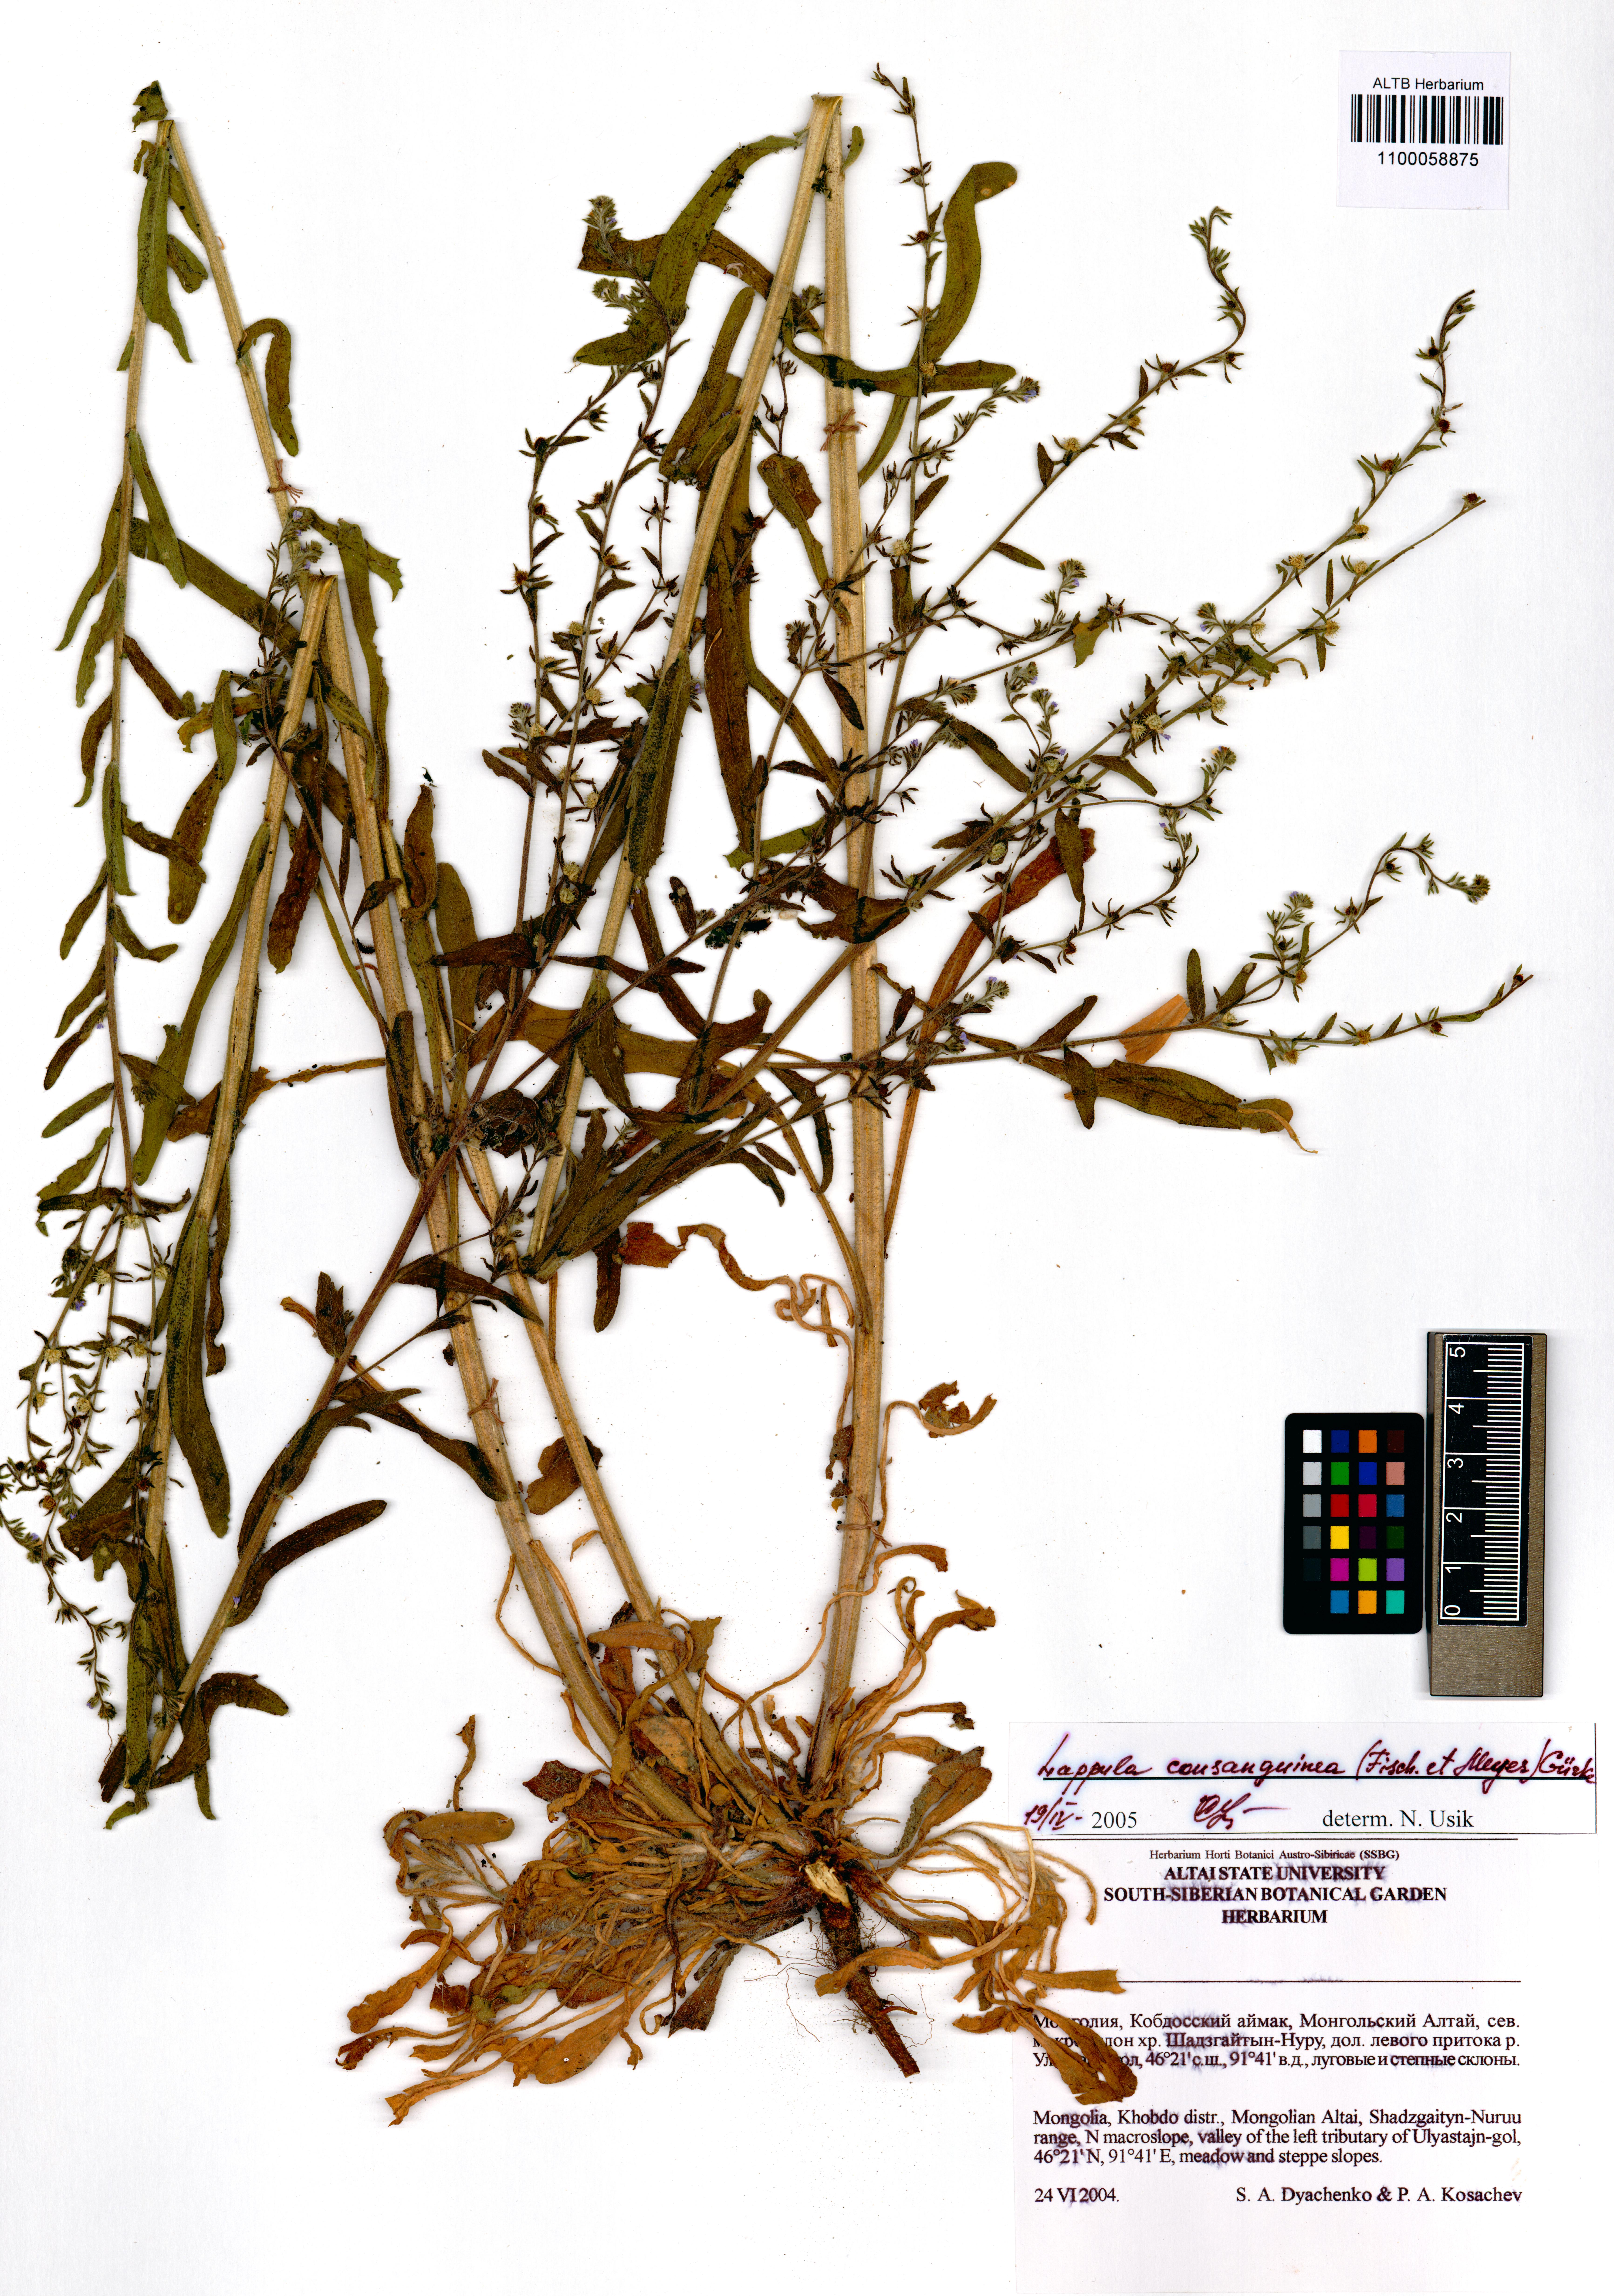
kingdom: Plantae
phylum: Tracheophyta
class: Magnoliopsida
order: Boraginales
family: Boraginaceae
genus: Lappula
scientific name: Lappula squarrosa
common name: European stickseed
